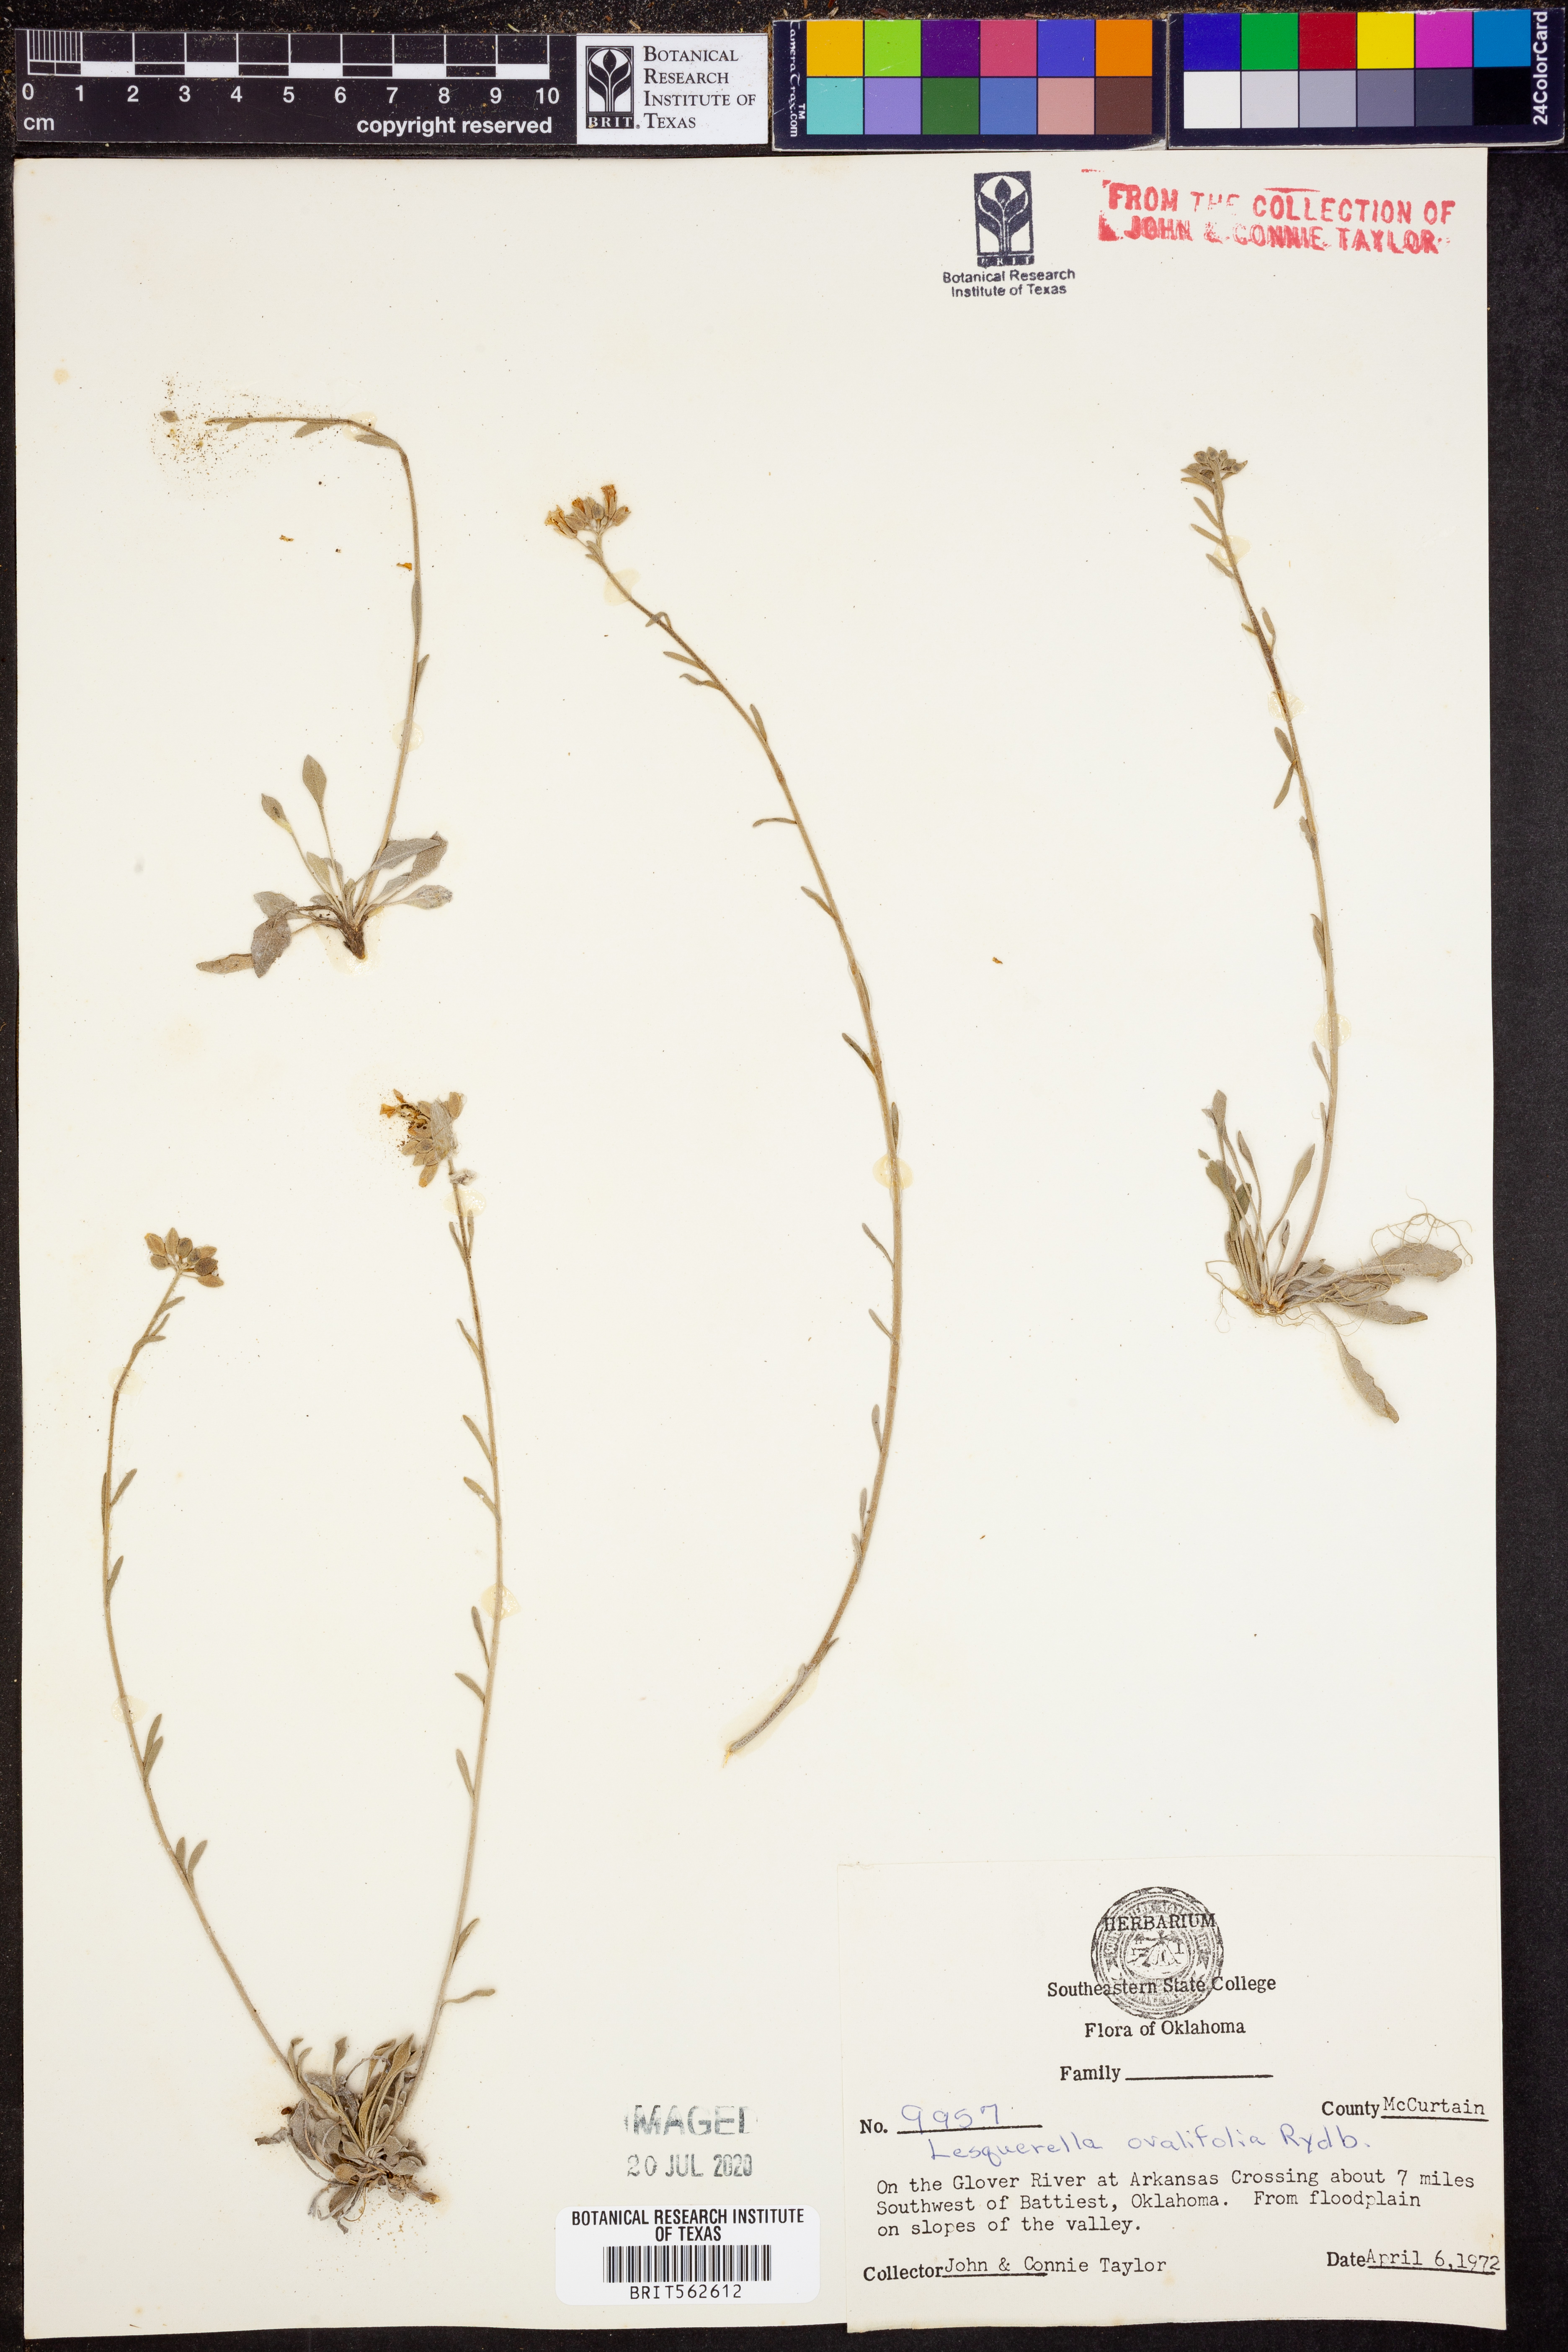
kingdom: Plantae
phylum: Tracheophyta
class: Magnoliopsida
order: Brassicales
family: Brassicaceae
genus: Physaria
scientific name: Physaria ovalifolia
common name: Round-leaf bladderpod
